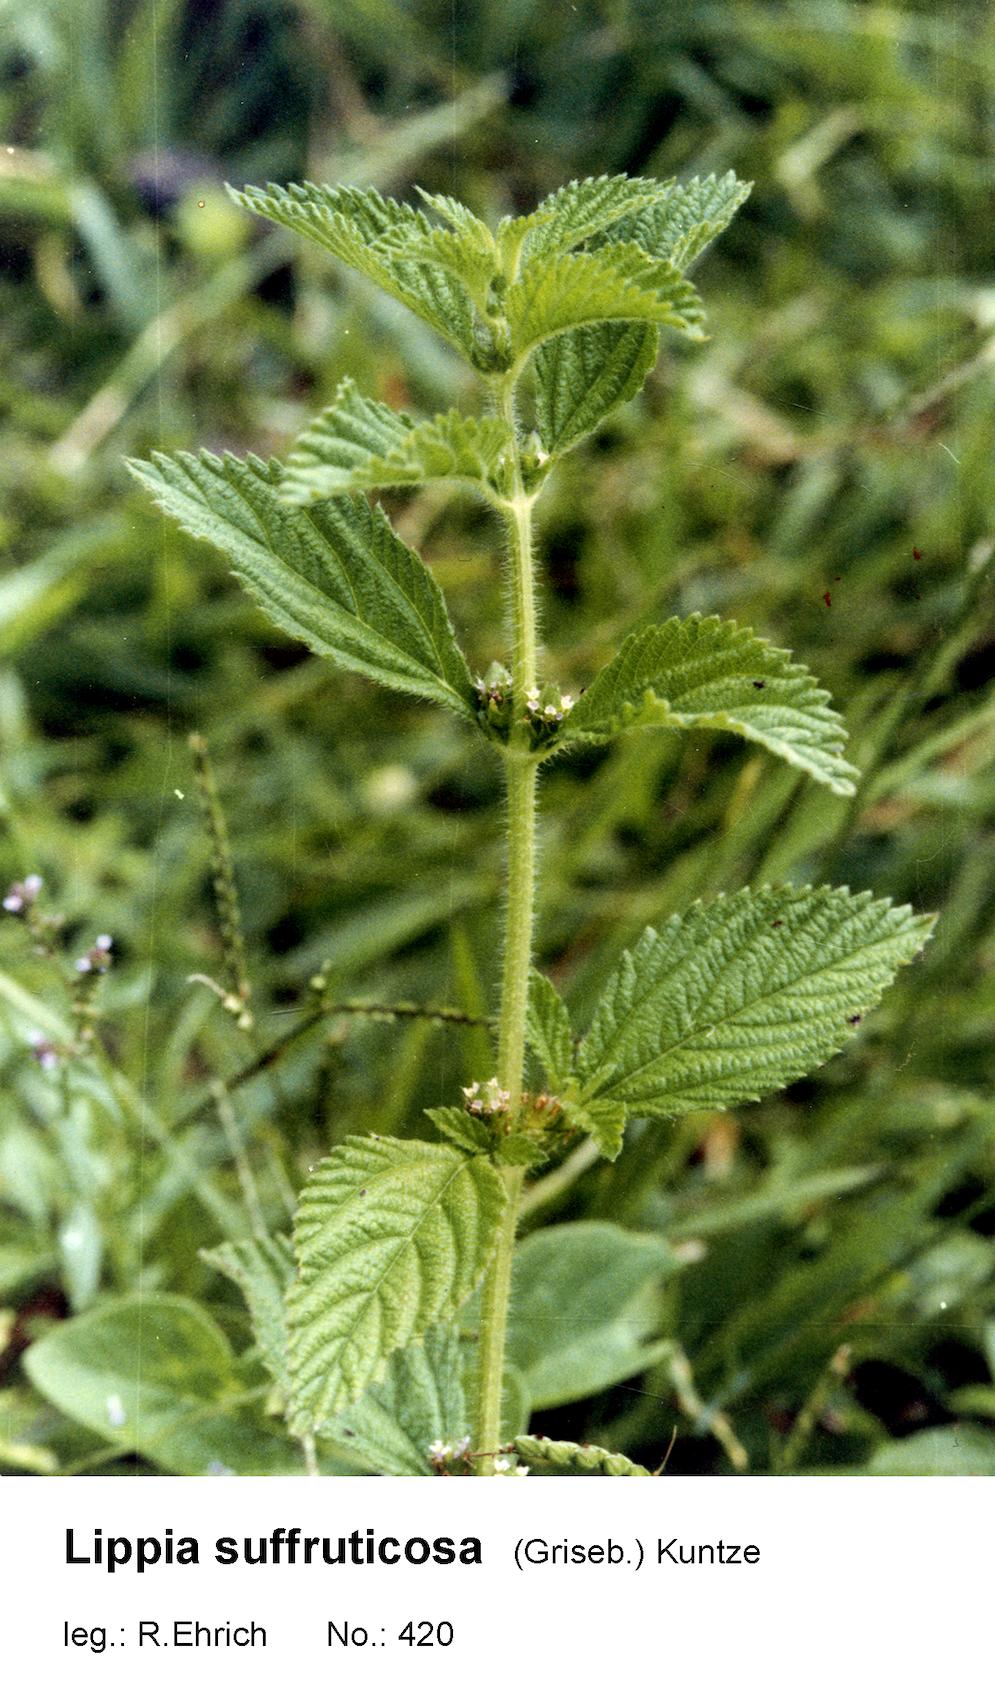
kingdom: Plantae
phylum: Tracheophyta
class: Magnoliopsida
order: Lamiales
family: Verbenaceae
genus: Lippia
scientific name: Lippia
